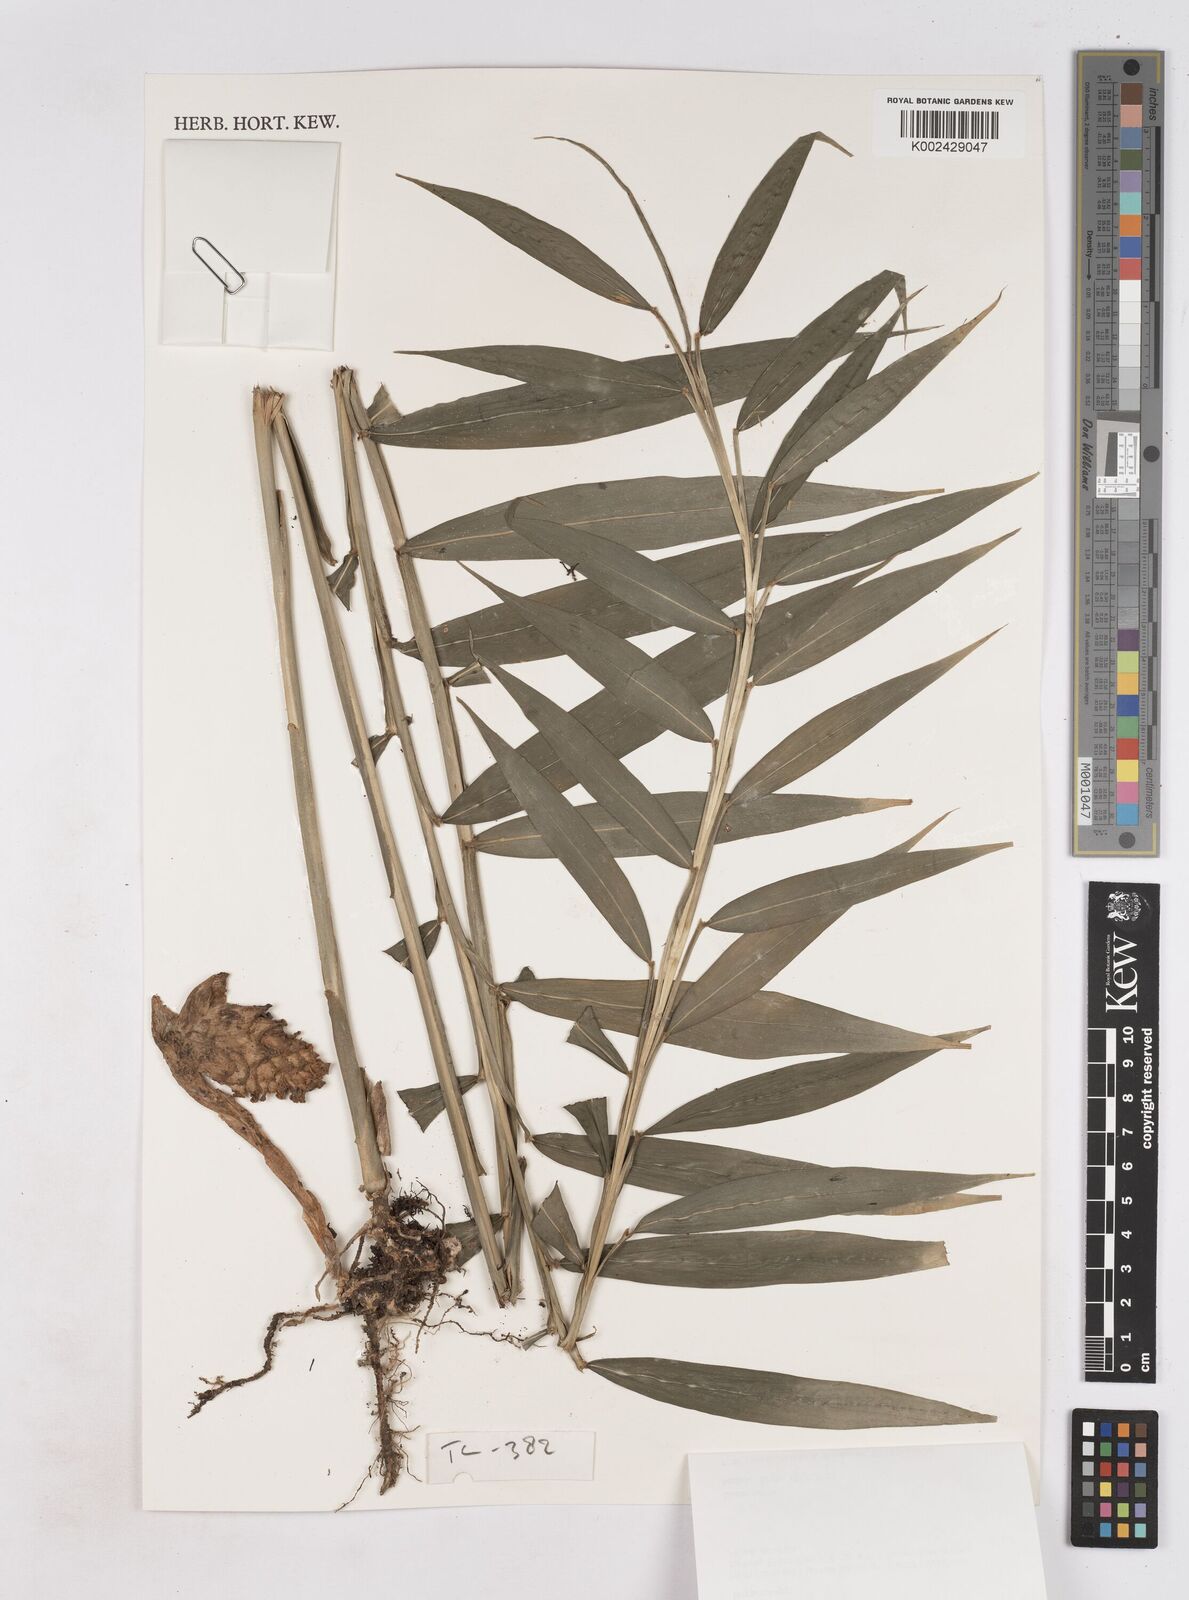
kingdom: Plantae
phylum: Tracheophyta
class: Liliopsida
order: Zingiberales
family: Zingiberaceae
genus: Zingiber
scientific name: Zingiber longipedunculatum
